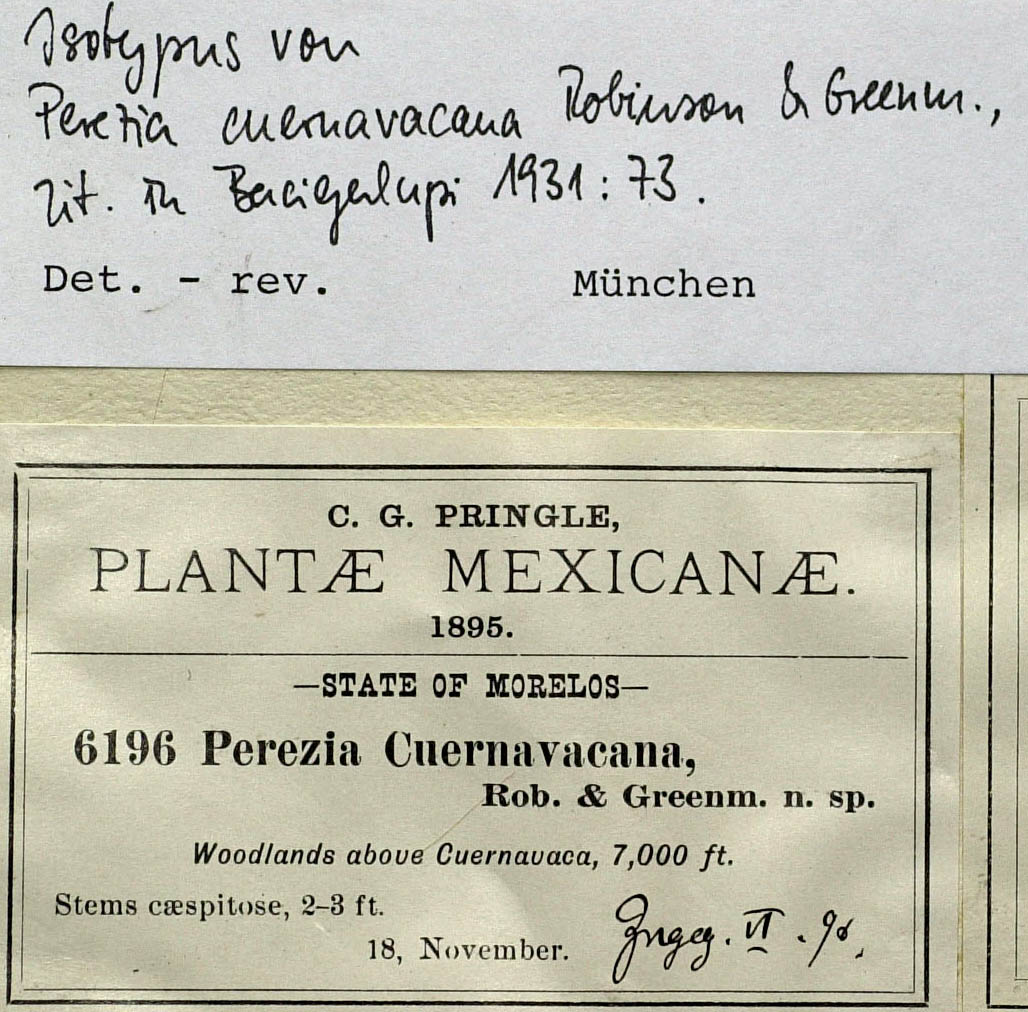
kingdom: Plantae
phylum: Tracheophyta
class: Magnoliopsida
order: Asterales
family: Asteraceae
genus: Acourtia
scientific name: Acourtia cuernavacana
